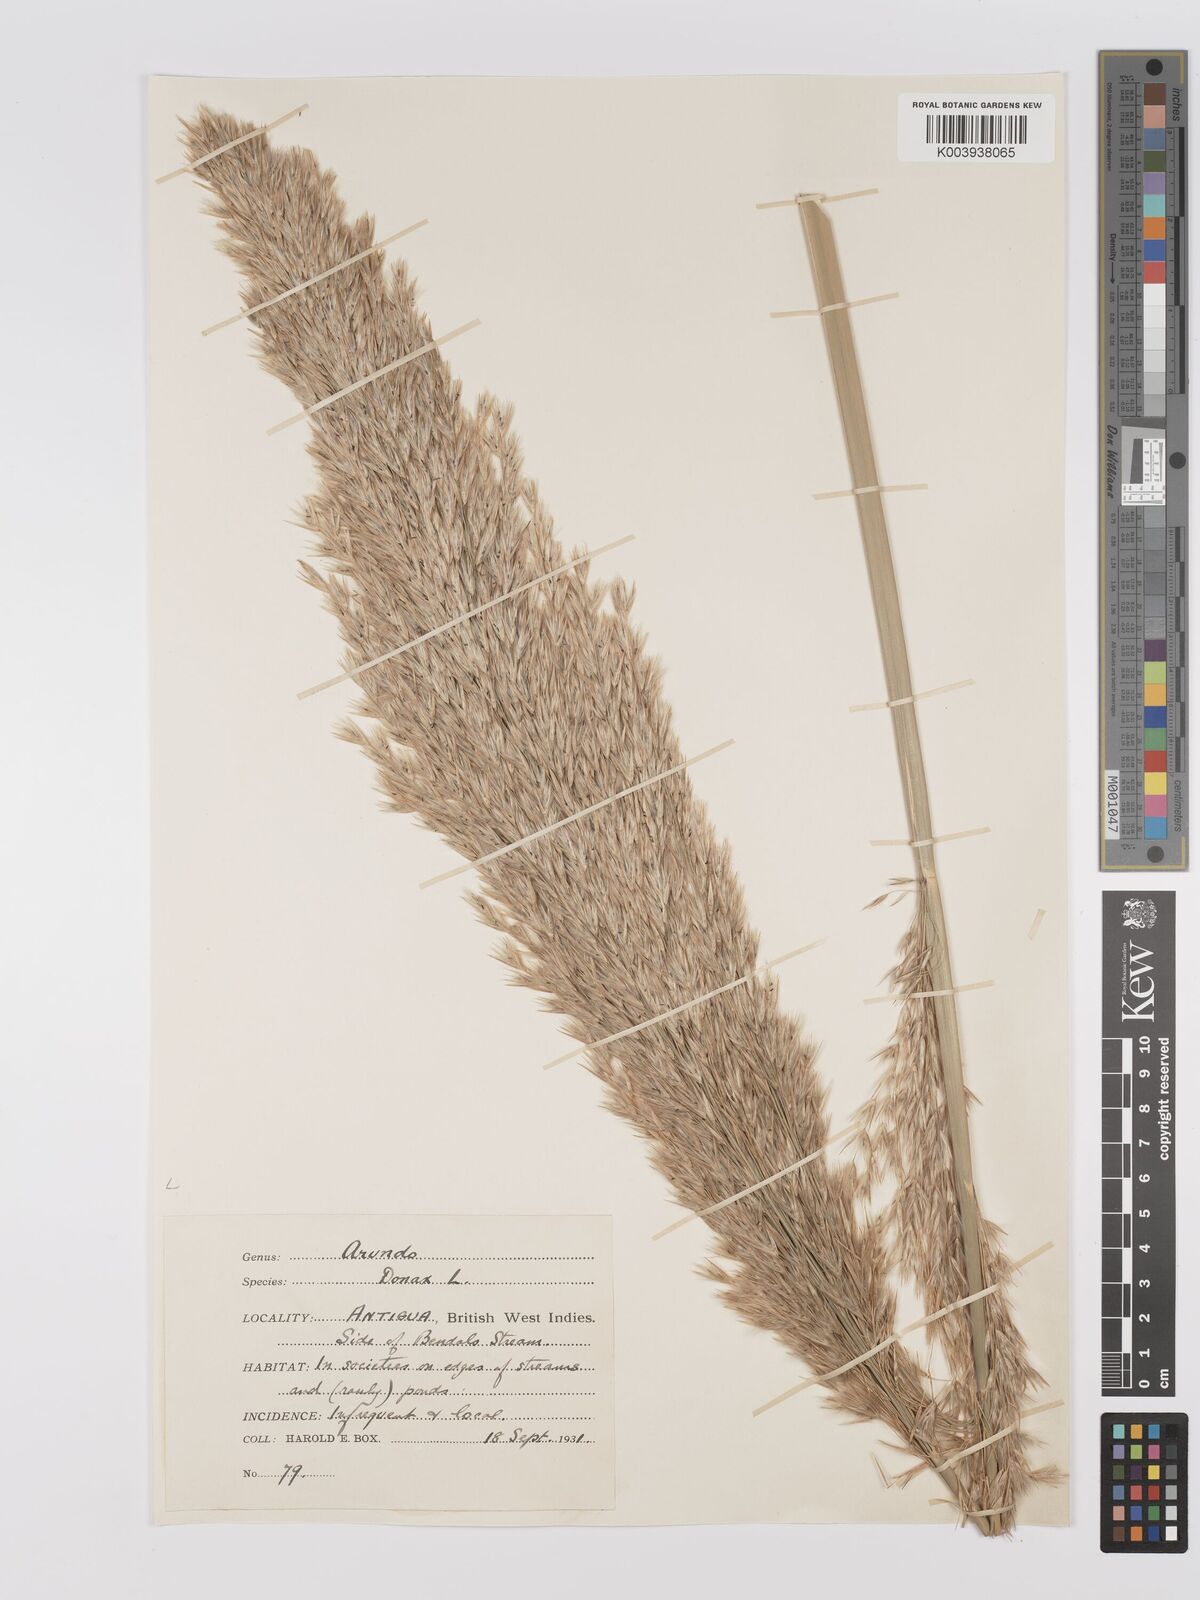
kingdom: Plantae
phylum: Tracheophyta
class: Liliopsida
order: Poales
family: Poaceae
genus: Arundo
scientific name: Arundo donax
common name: Giant reed
